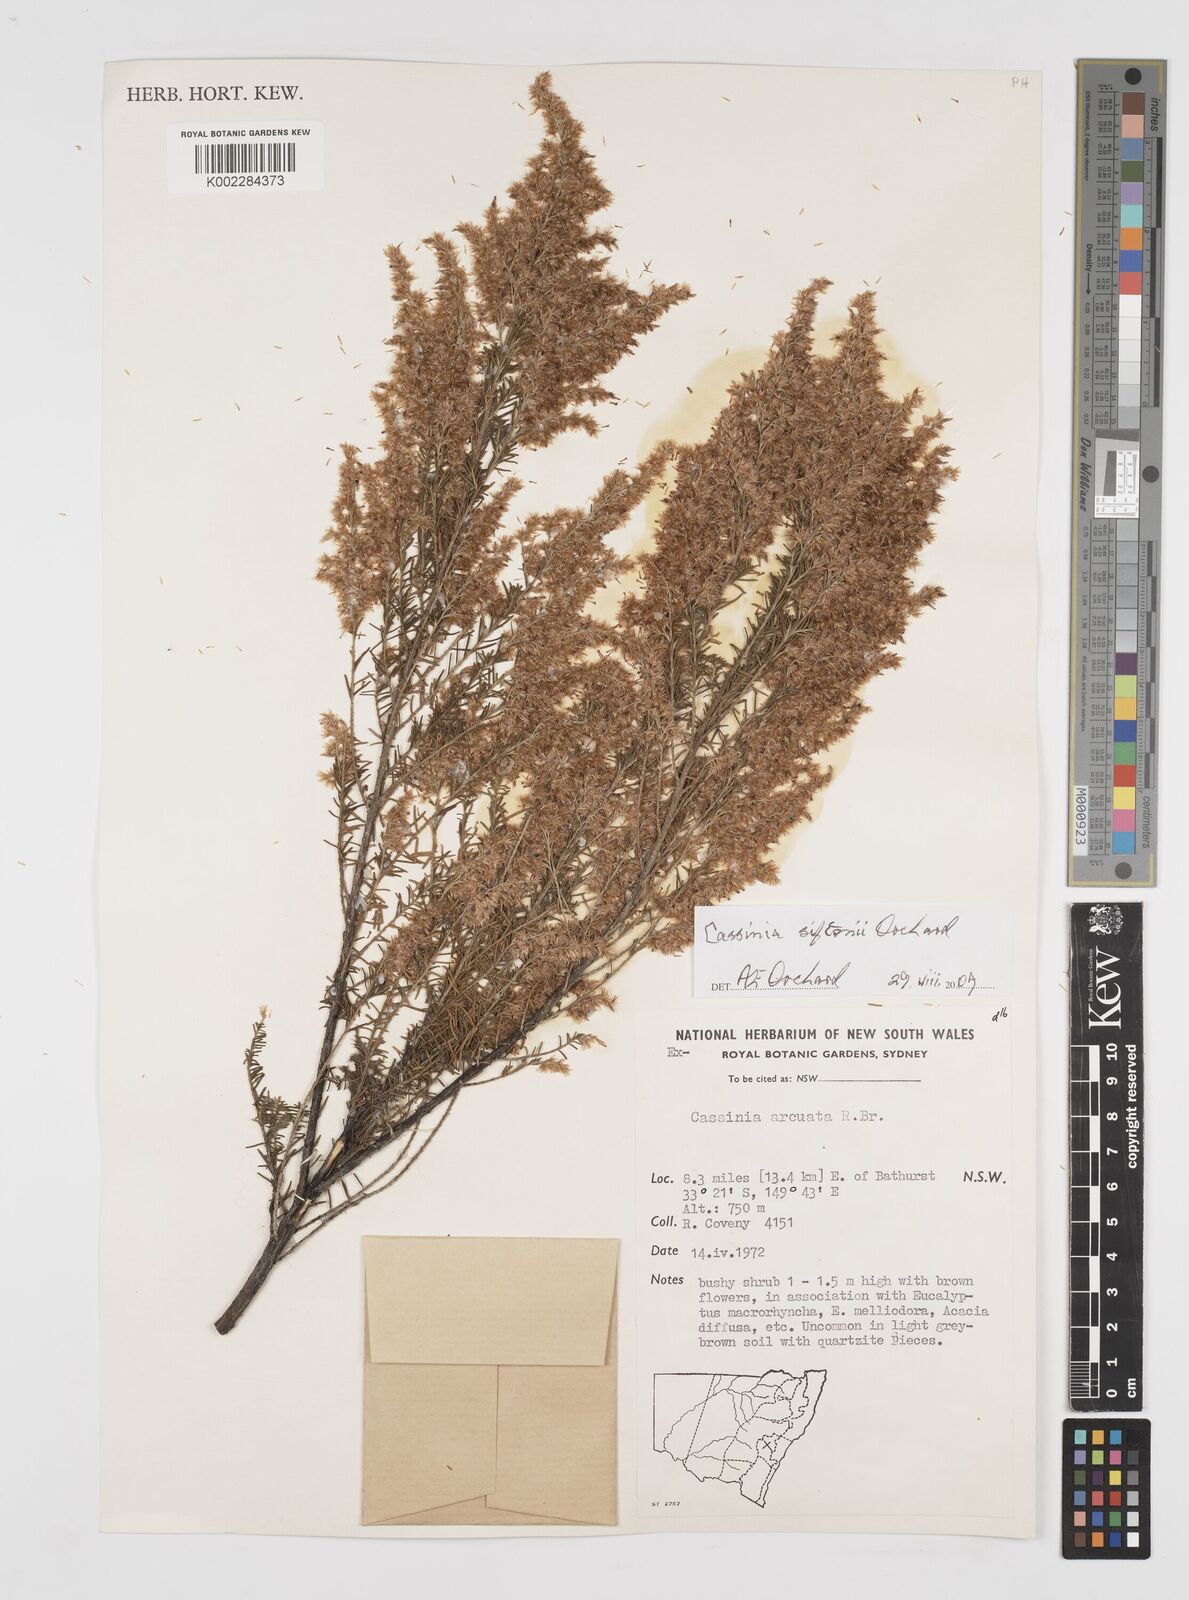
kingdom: Plantae
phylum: Tracheophyta
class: Magnoliopsida
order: Asterales
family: Asteraceae
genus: Cassinia
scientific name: Cassinia arcuata
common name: Chineseshrub
